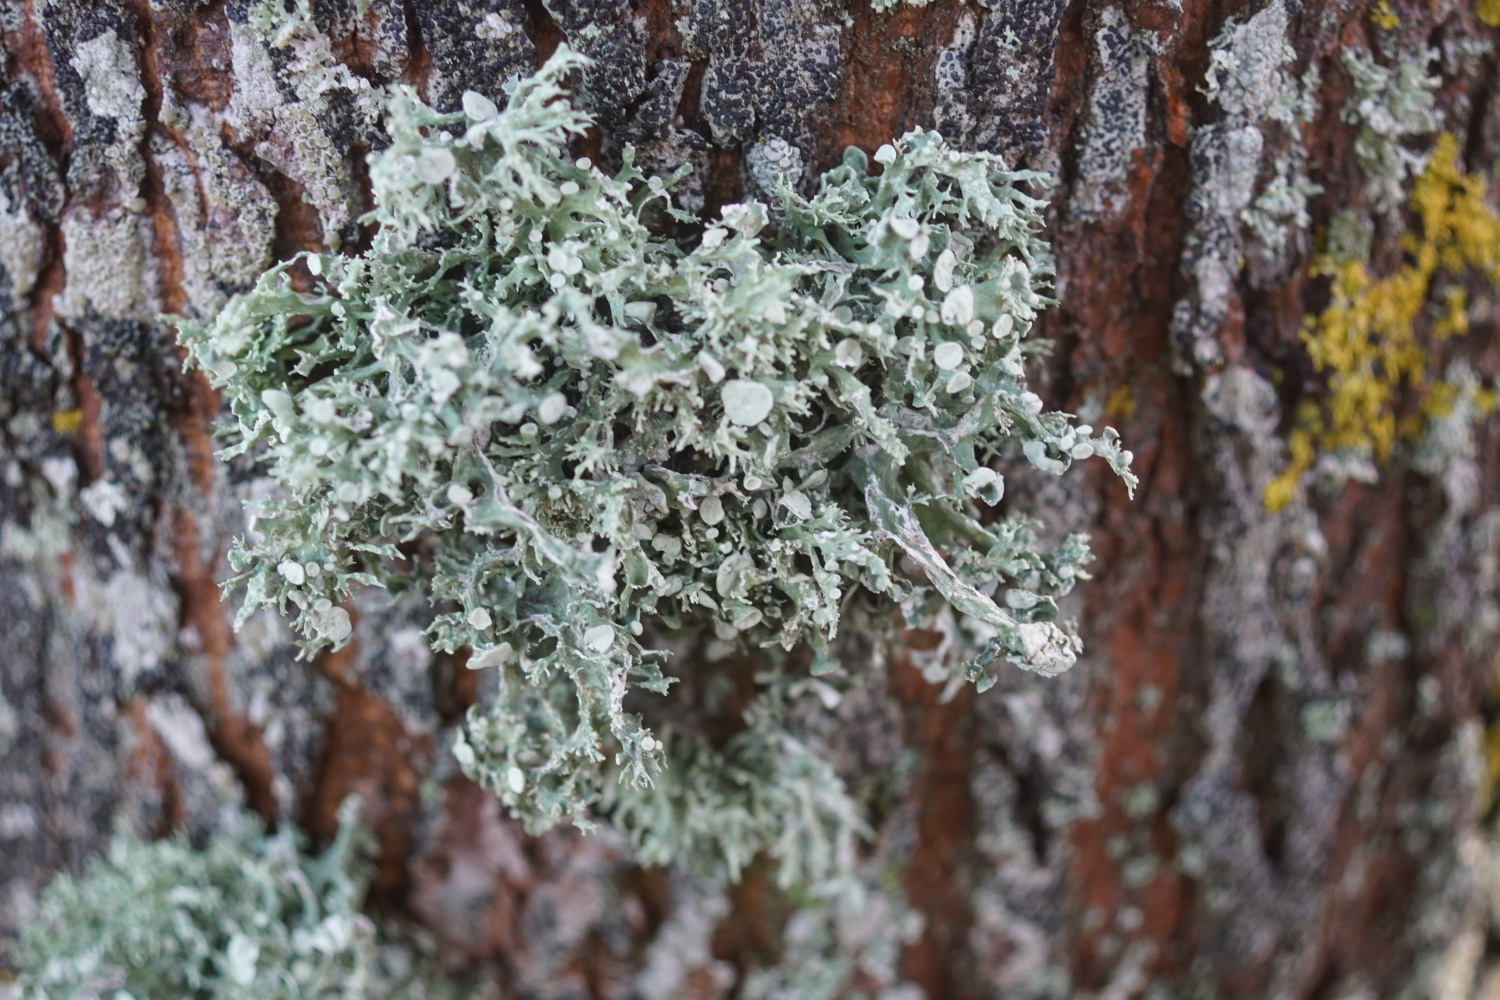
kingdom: Fungi
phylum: Ascomycota
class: Lecanoromycetes
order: Lecanorales
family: Ramalinaceae
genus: Ramalina
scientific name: Ramalina fastigiata
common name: tue-grenlav
